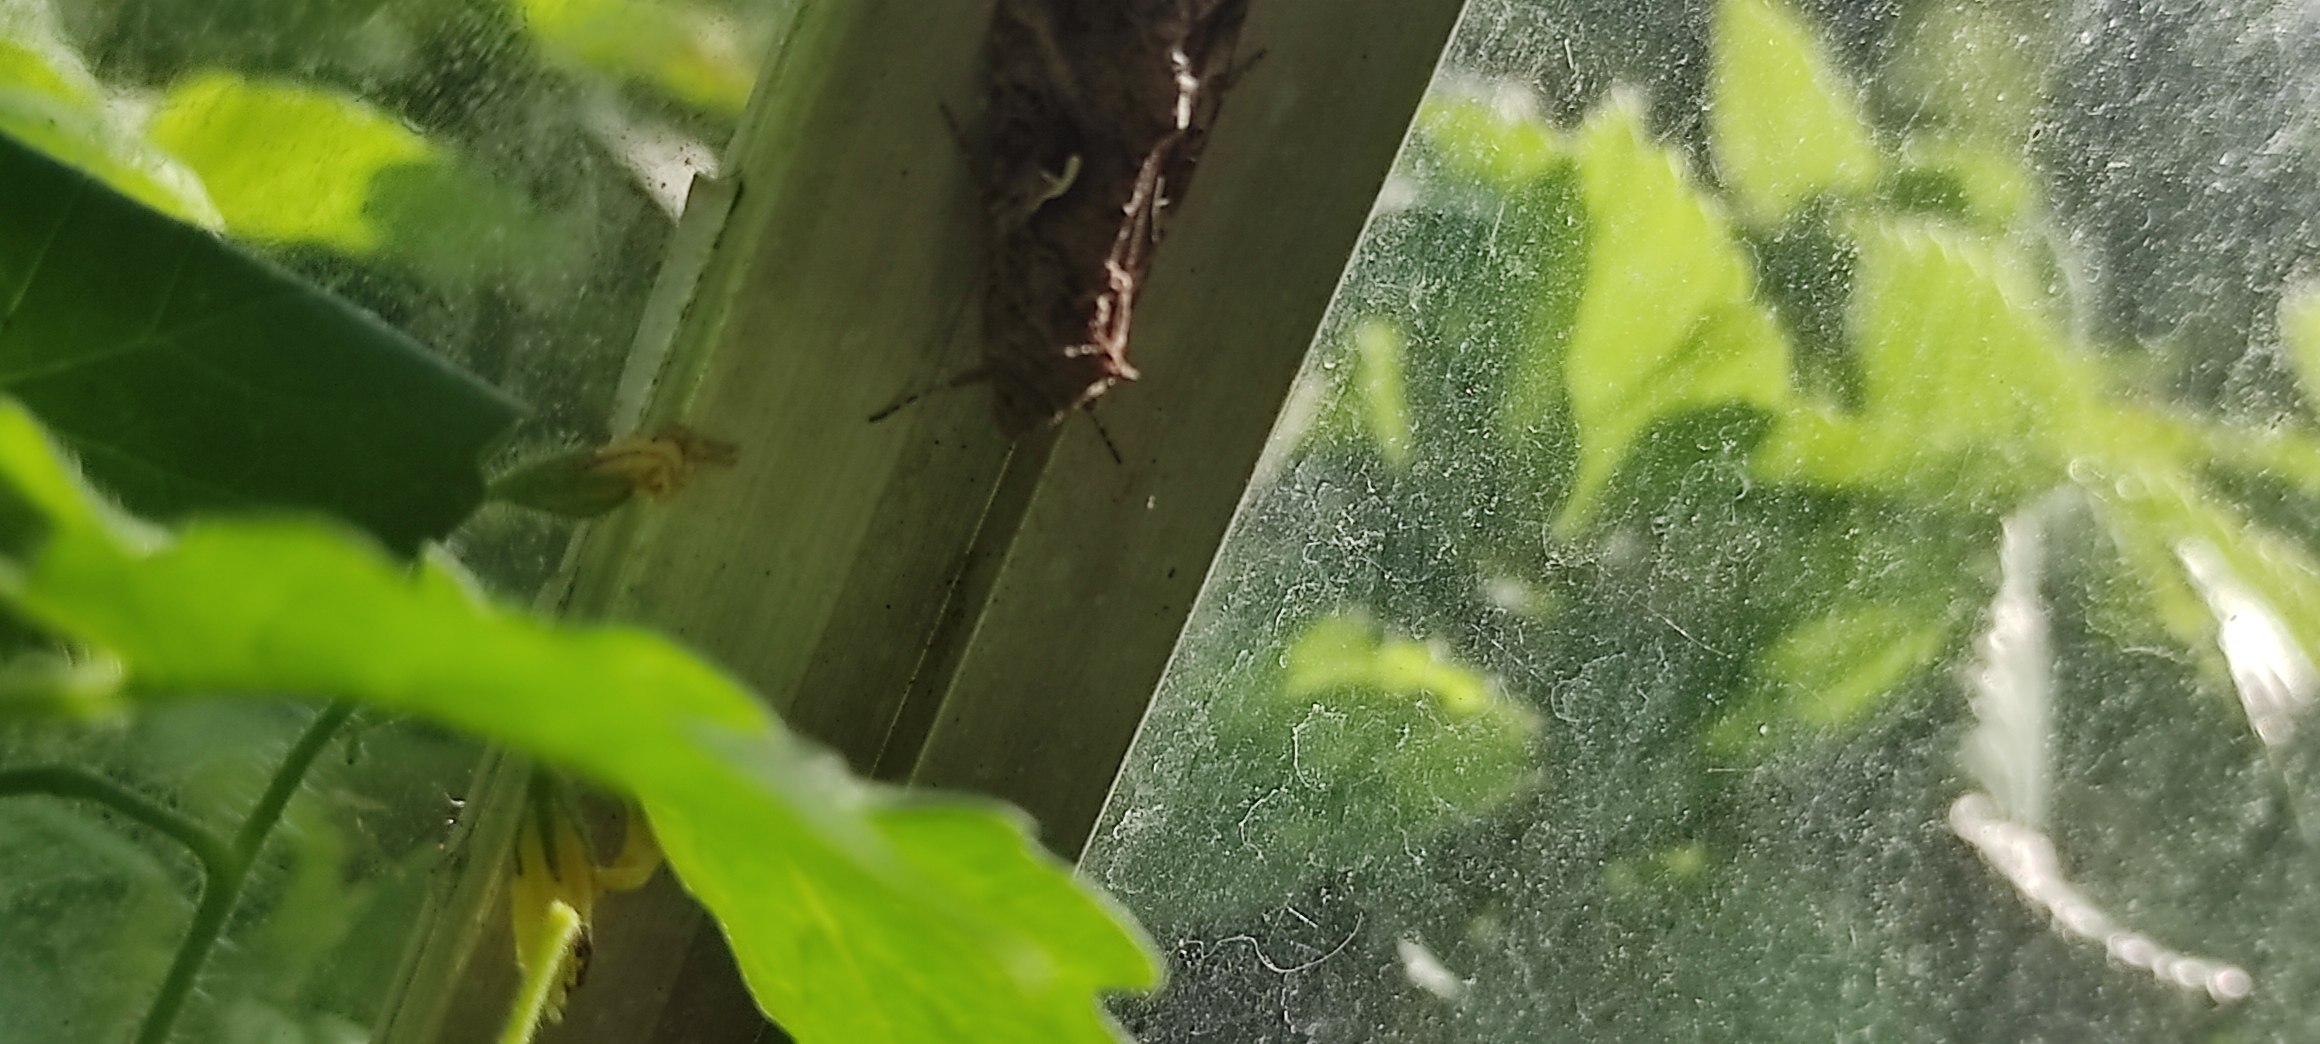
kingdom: Animalia
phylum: Arthropoda
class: Insecta
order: Lepidoptera
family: Noctuidae
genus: Autographa
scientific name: Autographa gamma
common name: Gammaugle
